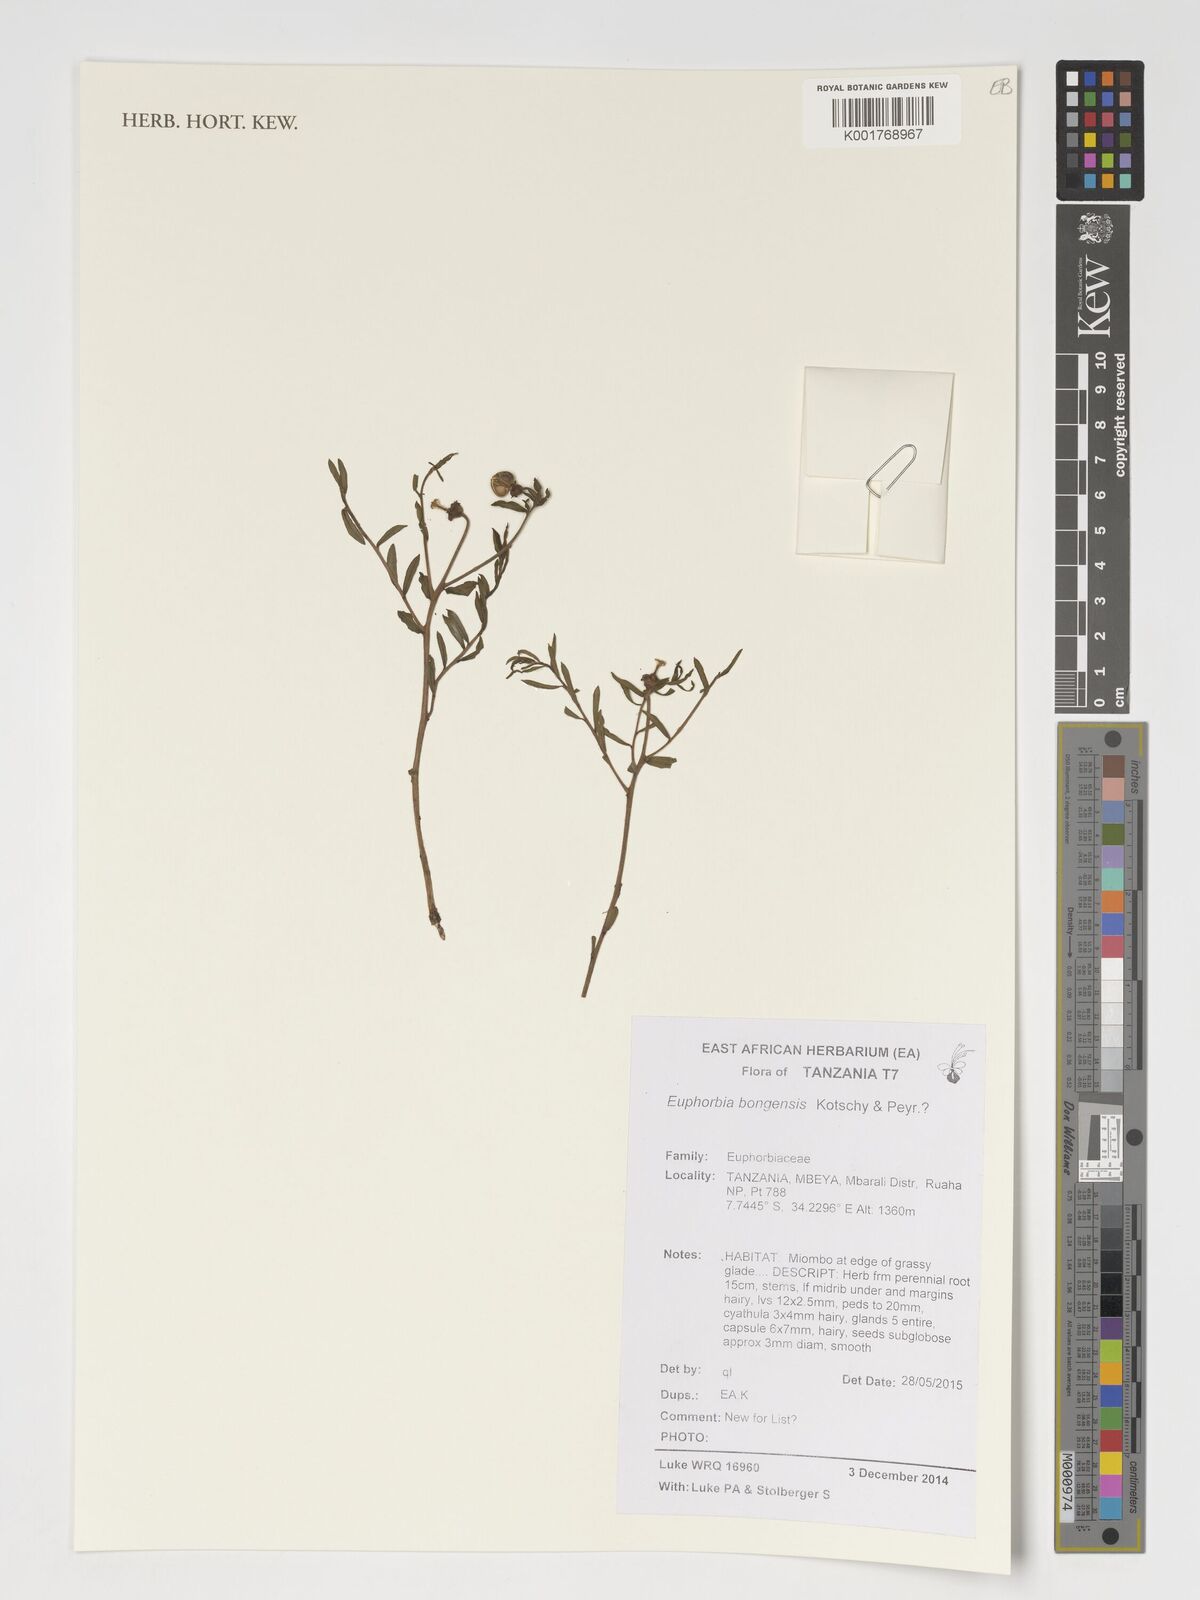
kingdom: Plantae
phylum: Tracheophyta
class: Magnoliopsida
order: Malpighiales
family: Euphorbiaceae
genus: Euphorbia
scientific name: Euphorbia bongensis
